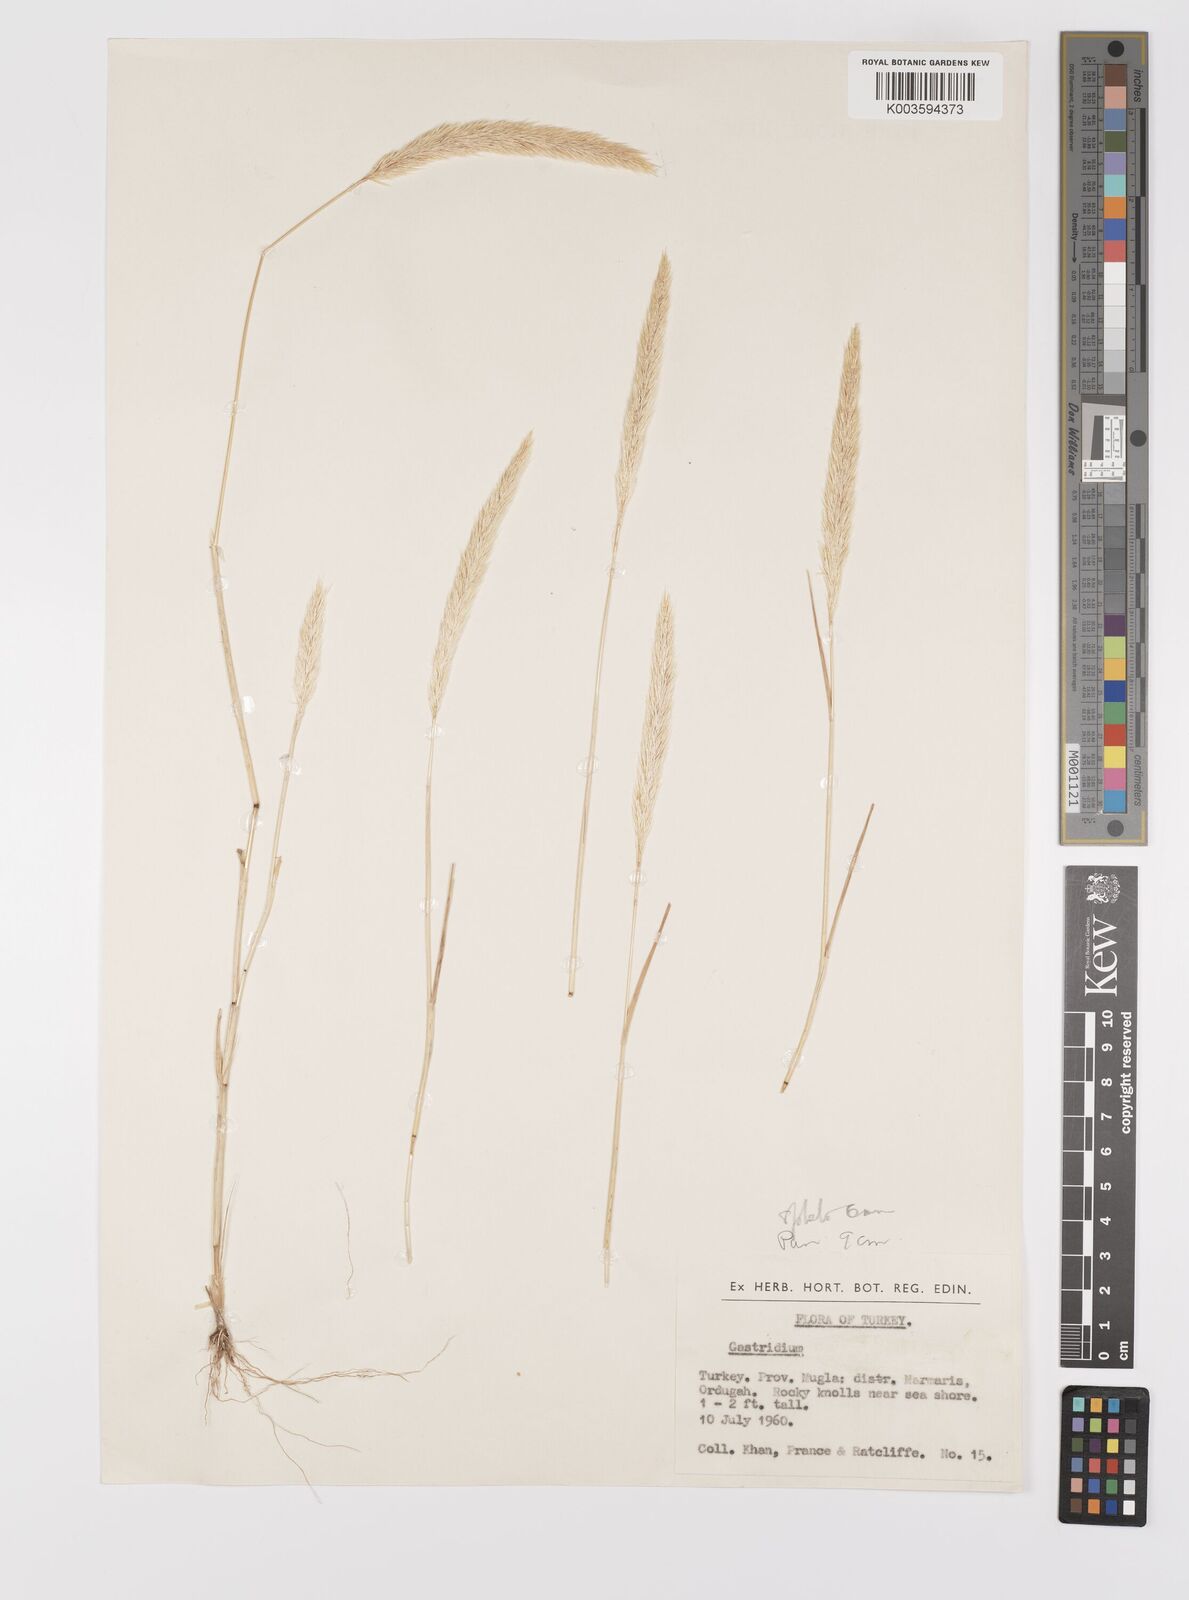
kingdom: Plantae
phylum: Tracheophyta
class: Liliopsida
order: Poales
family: Poaceae
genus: Gastridium
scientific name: Gastridium phleoides
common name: Nit grass
